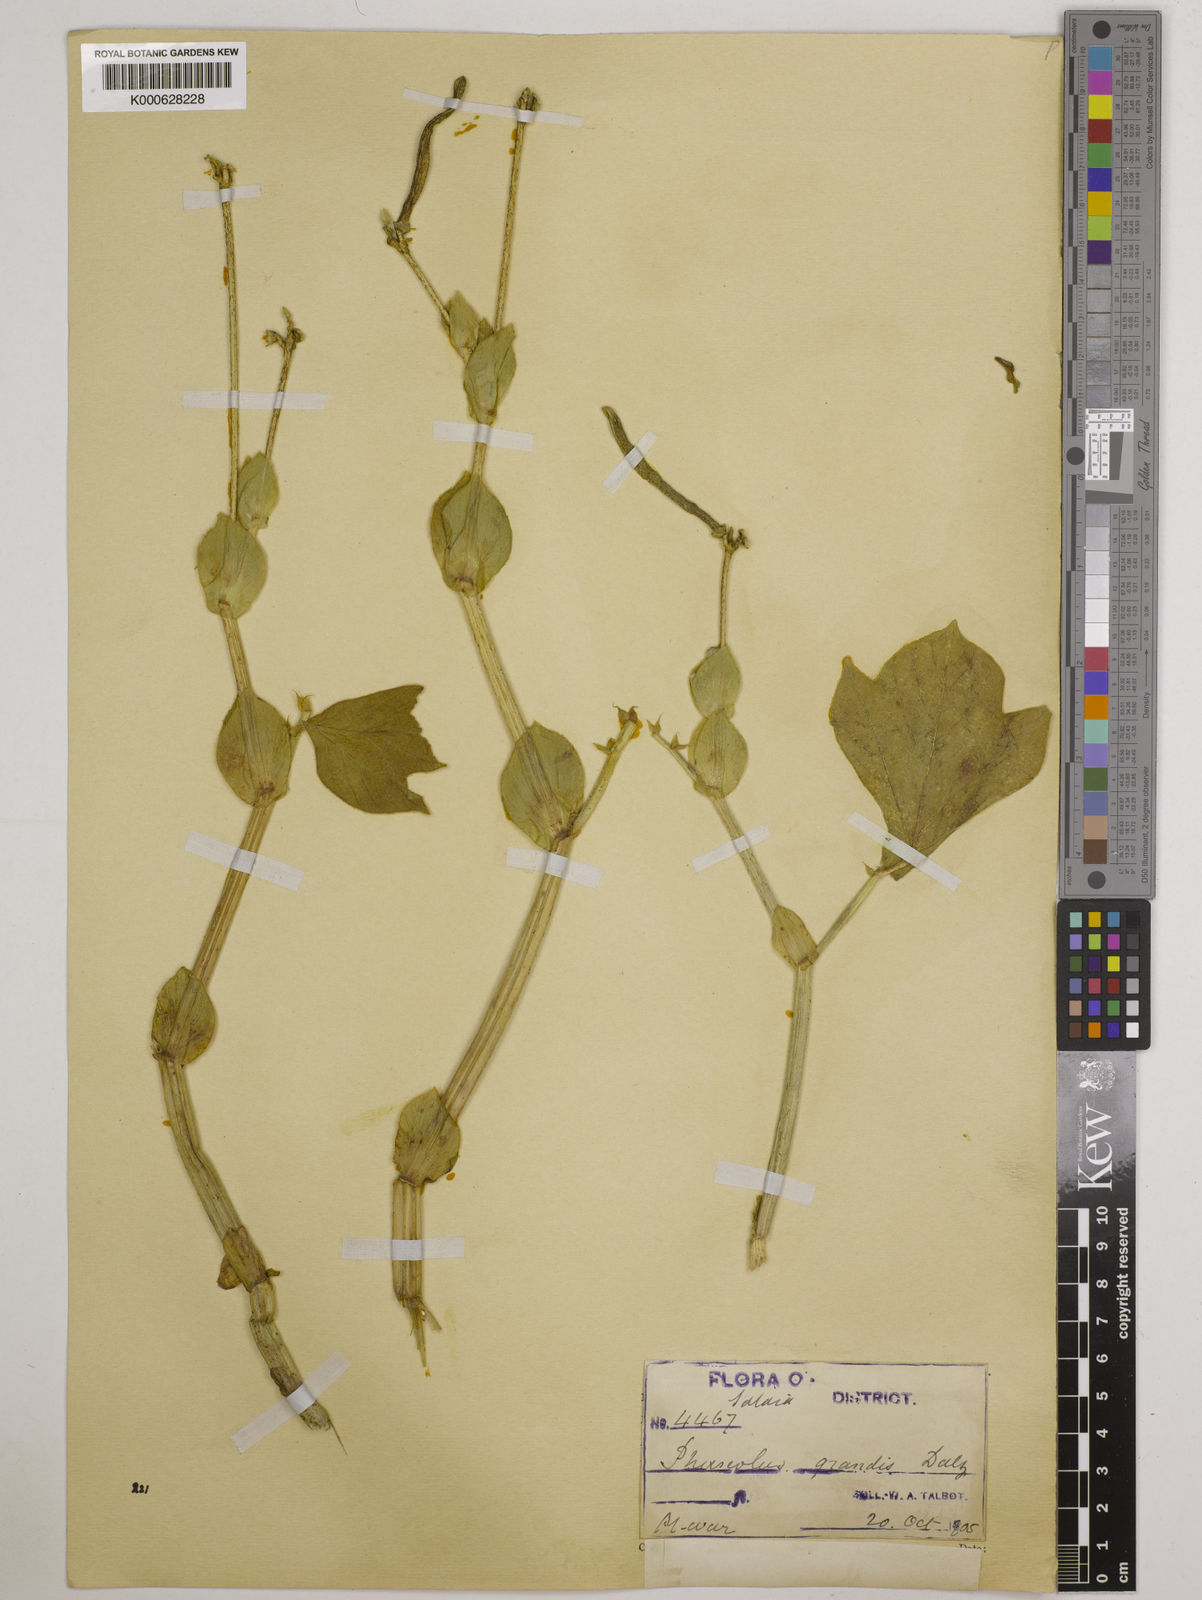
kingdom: Plantae
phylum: Tracheophyta
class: Magnoliopsida
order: Fabales
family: Fabaceae
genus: Vigna
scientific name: Vigna khandalensis
